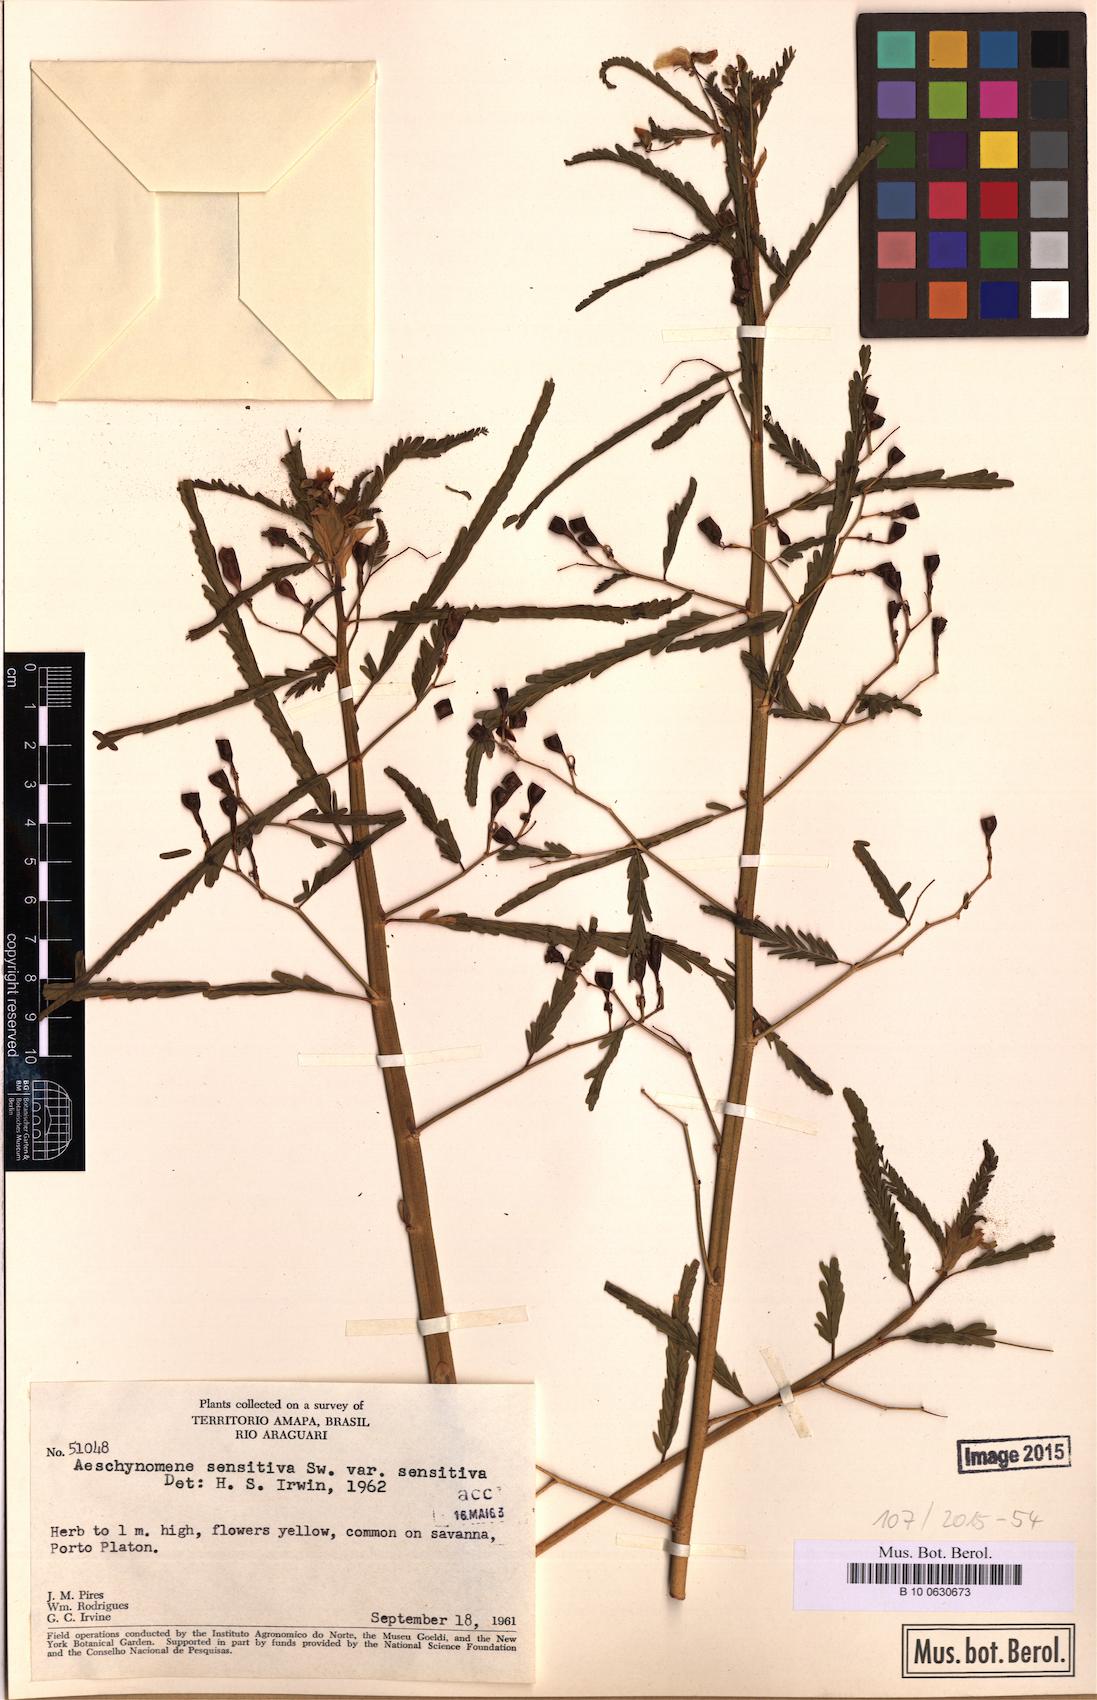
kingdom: Plantae
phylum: Tracheophyta
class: Magnoliopsida
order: Fabales
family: Fabaceae
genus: Aeschynomene
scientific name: Aeschynomene sensitiva
